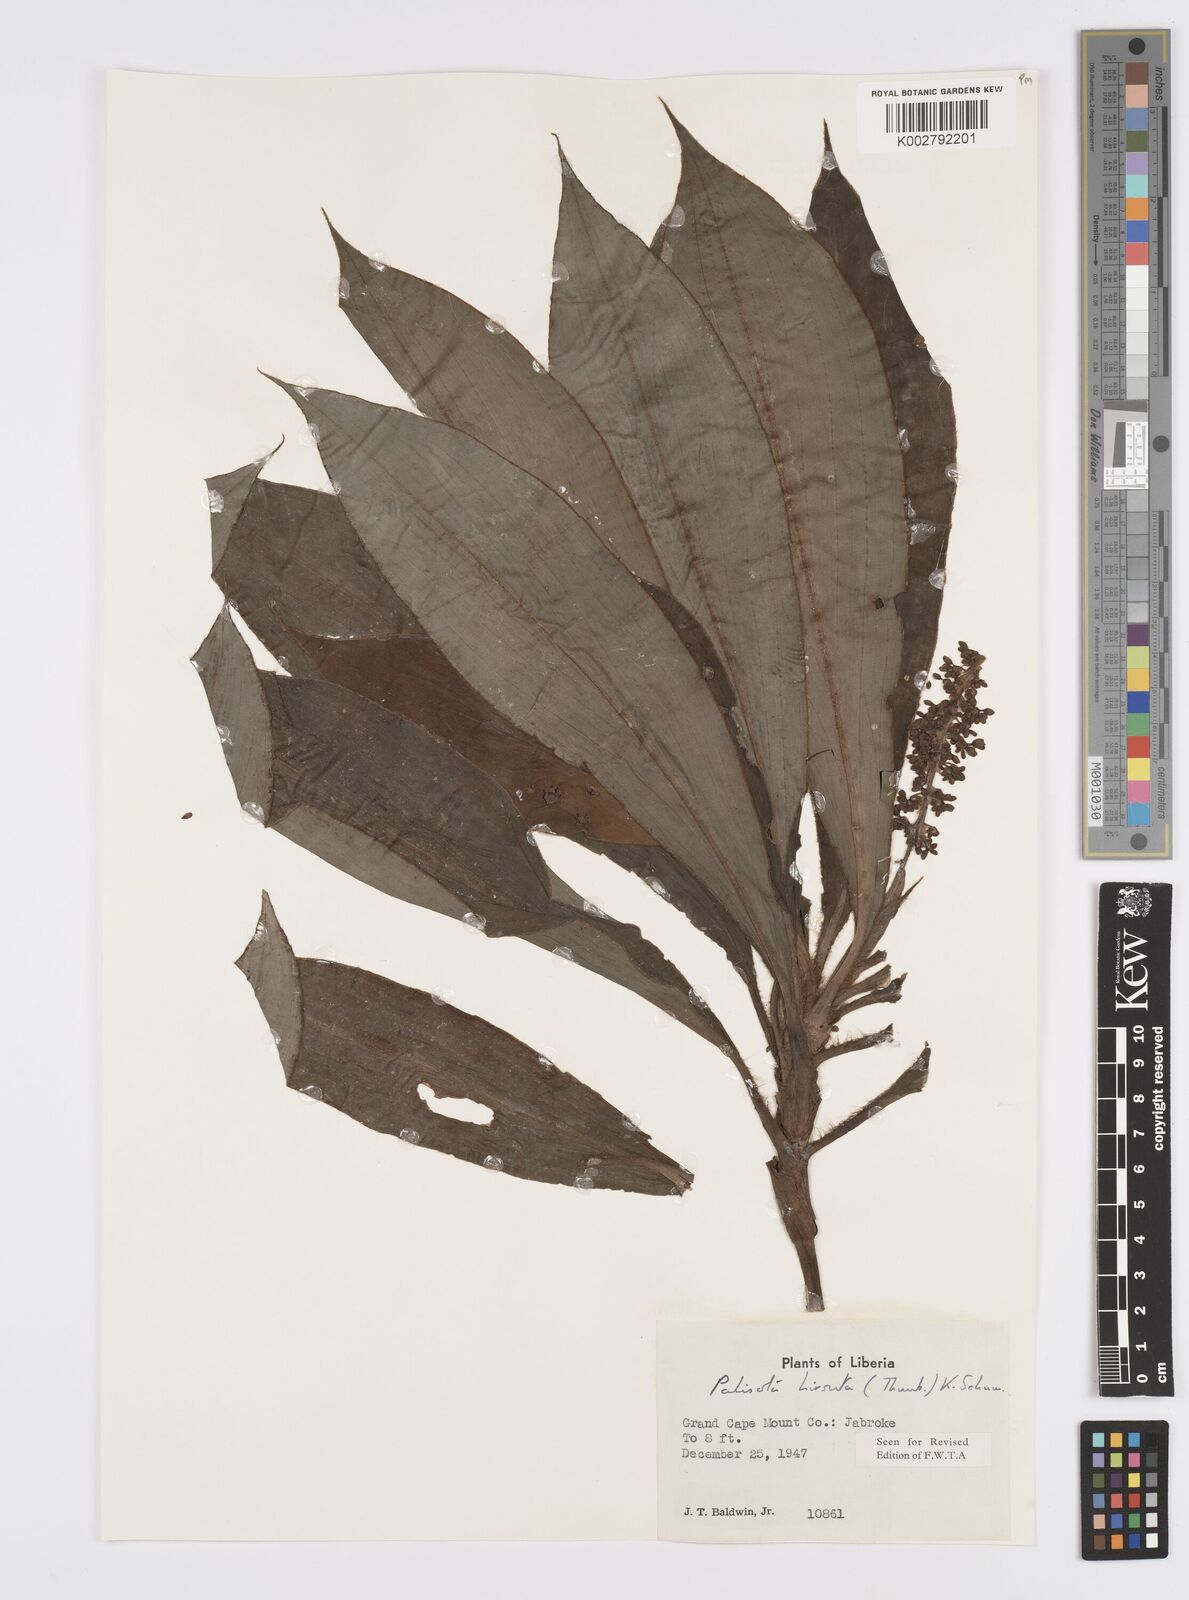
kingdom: Plantae
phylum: Tracheophyta
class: Liliopsida
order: Commelinales
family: Commelinaceae
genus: Palisota
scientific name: Palisota hirsuta
